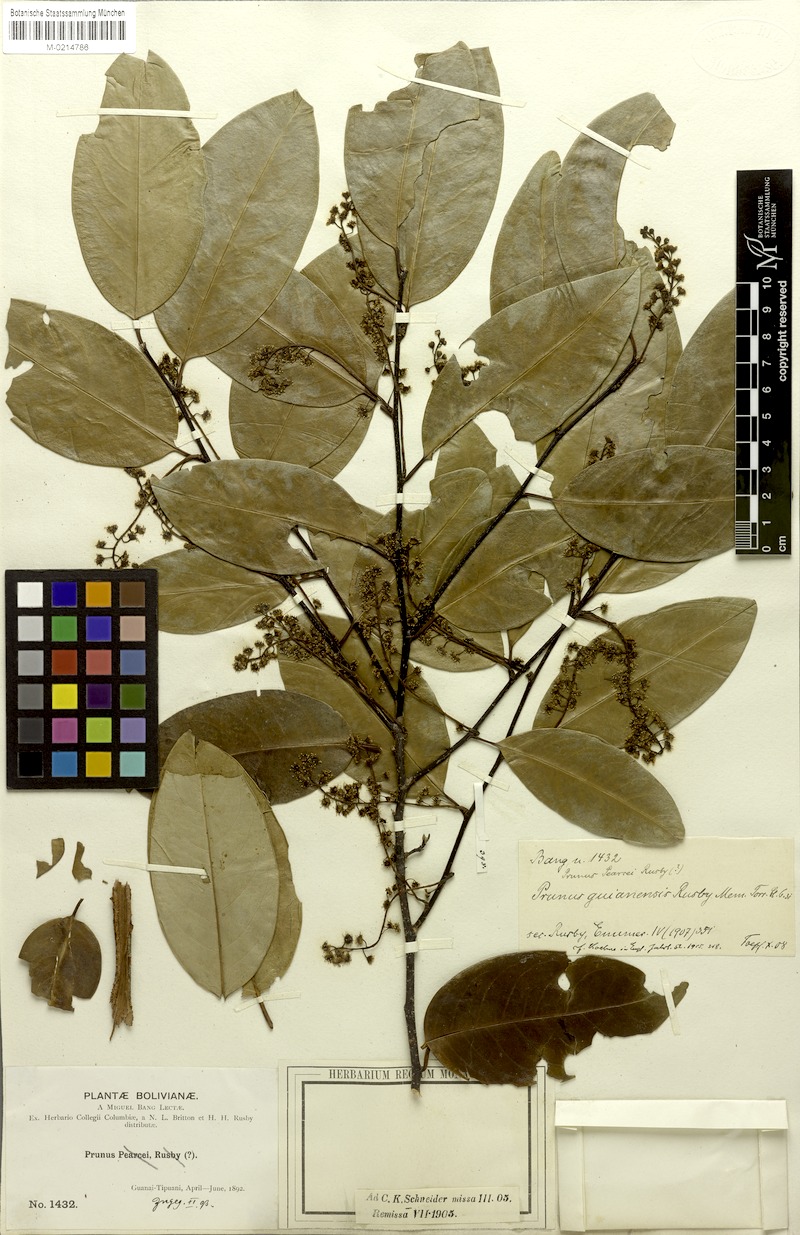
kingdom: Plantae
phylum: Tracheophyta
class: Magnoliopsida
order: Rosales
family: Rosaceae
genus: Prunus
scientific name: Prunus guanaiensis
